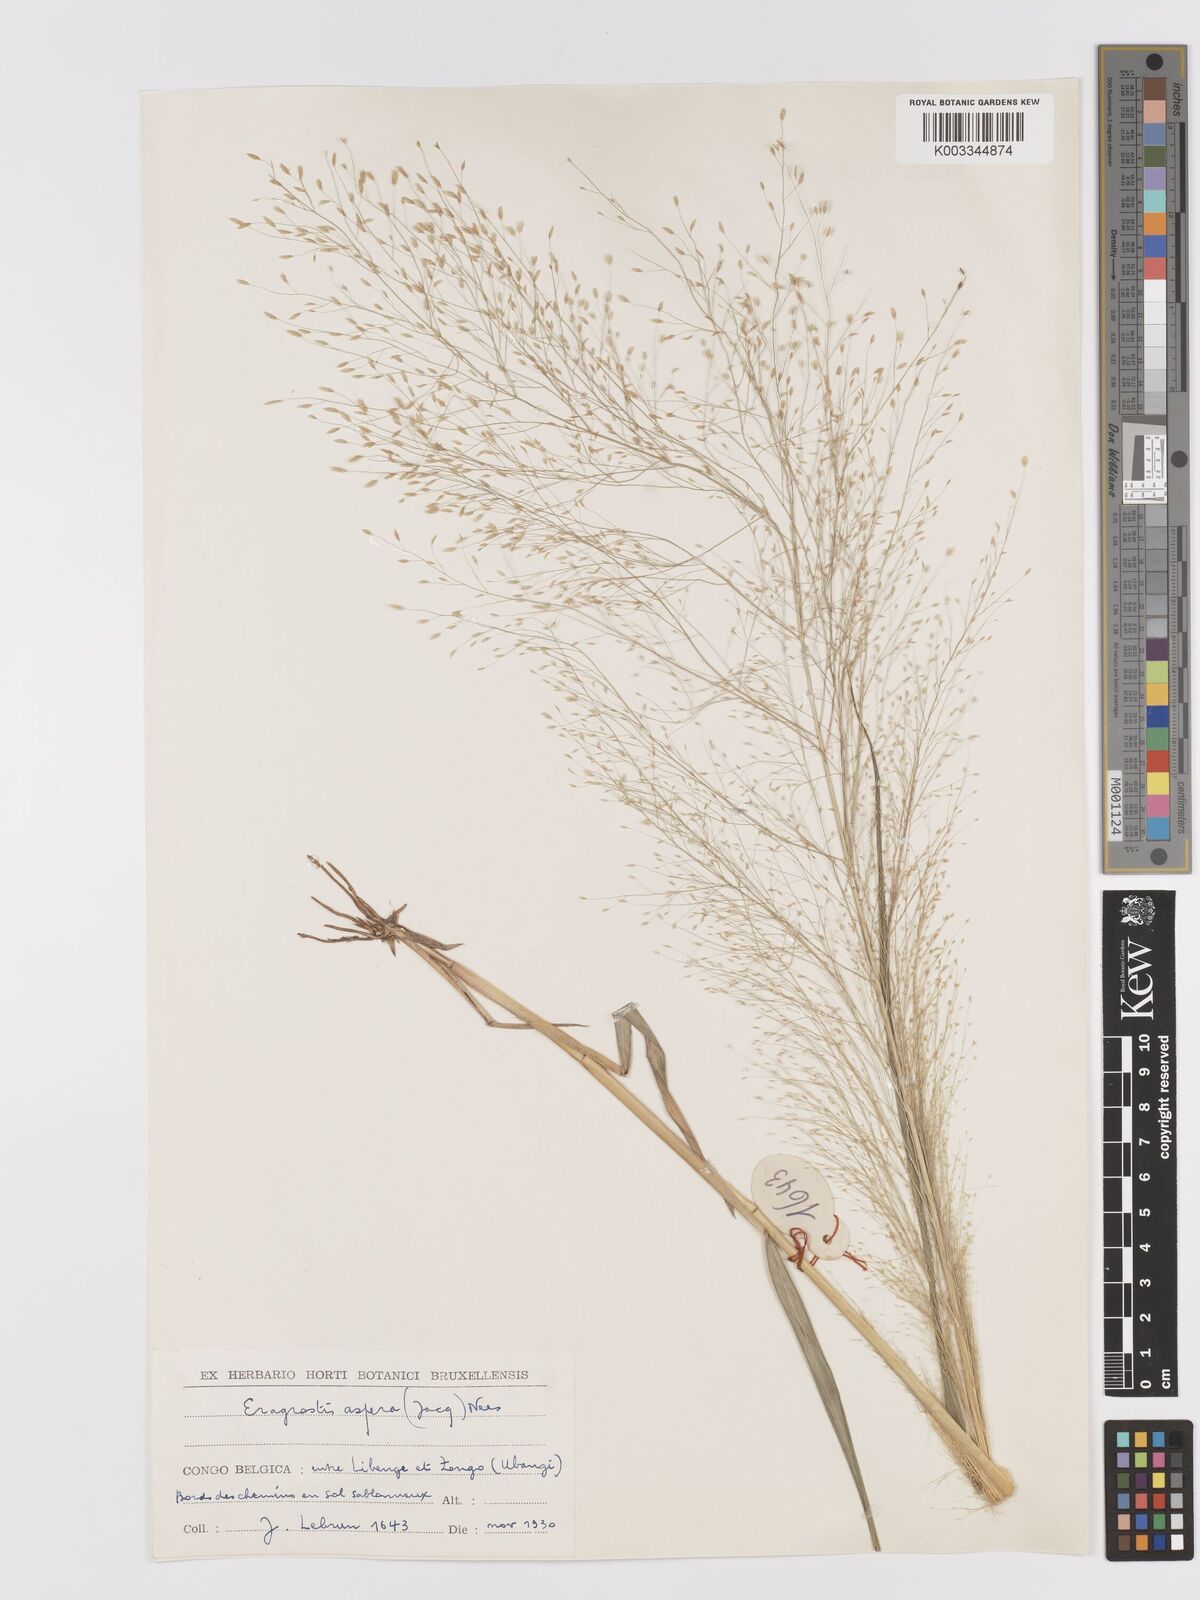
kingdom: Plantae
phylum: Tracheophyta
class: Liliopsida
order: Poales
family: Poaceae
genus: Eragrostis
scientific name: Eragrostis aspera
